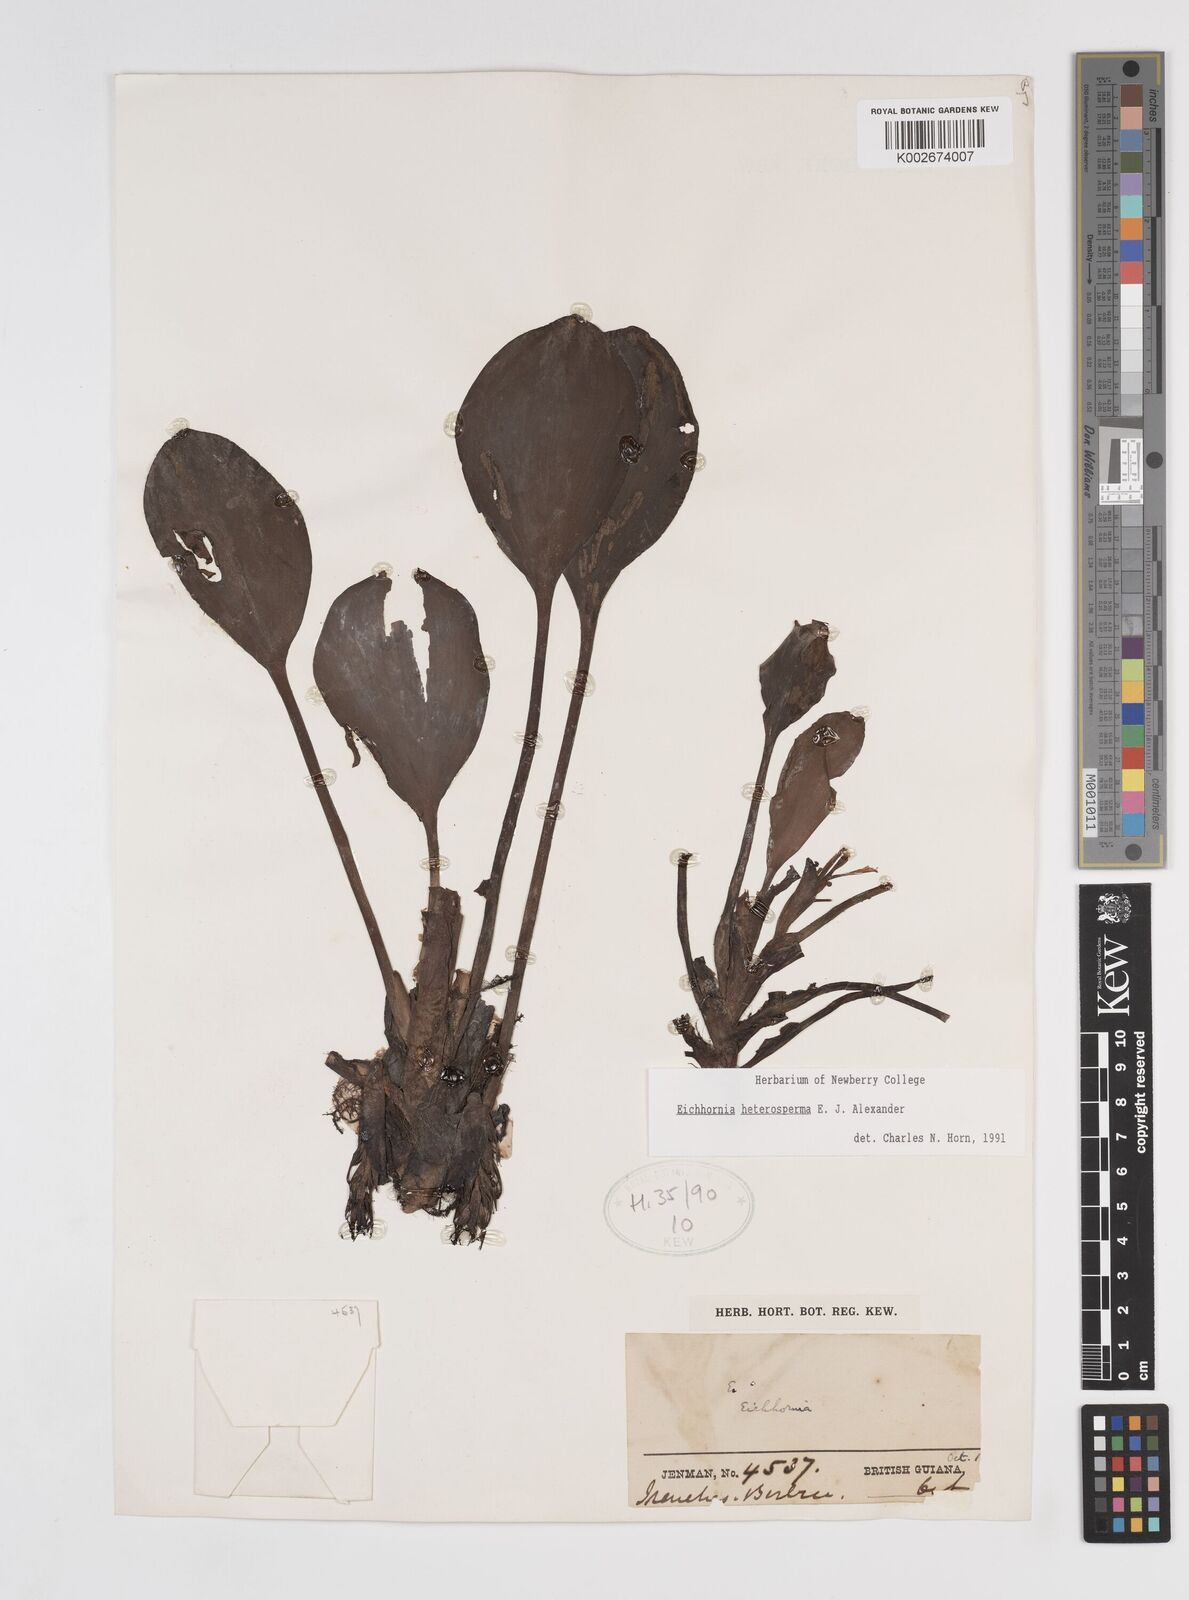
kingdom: Plantae
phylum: Tracheophyta
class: Liliopsida
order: Commelinales
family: Pontederiaceae
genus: Pontederia
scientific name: Pontederia heterosperma
